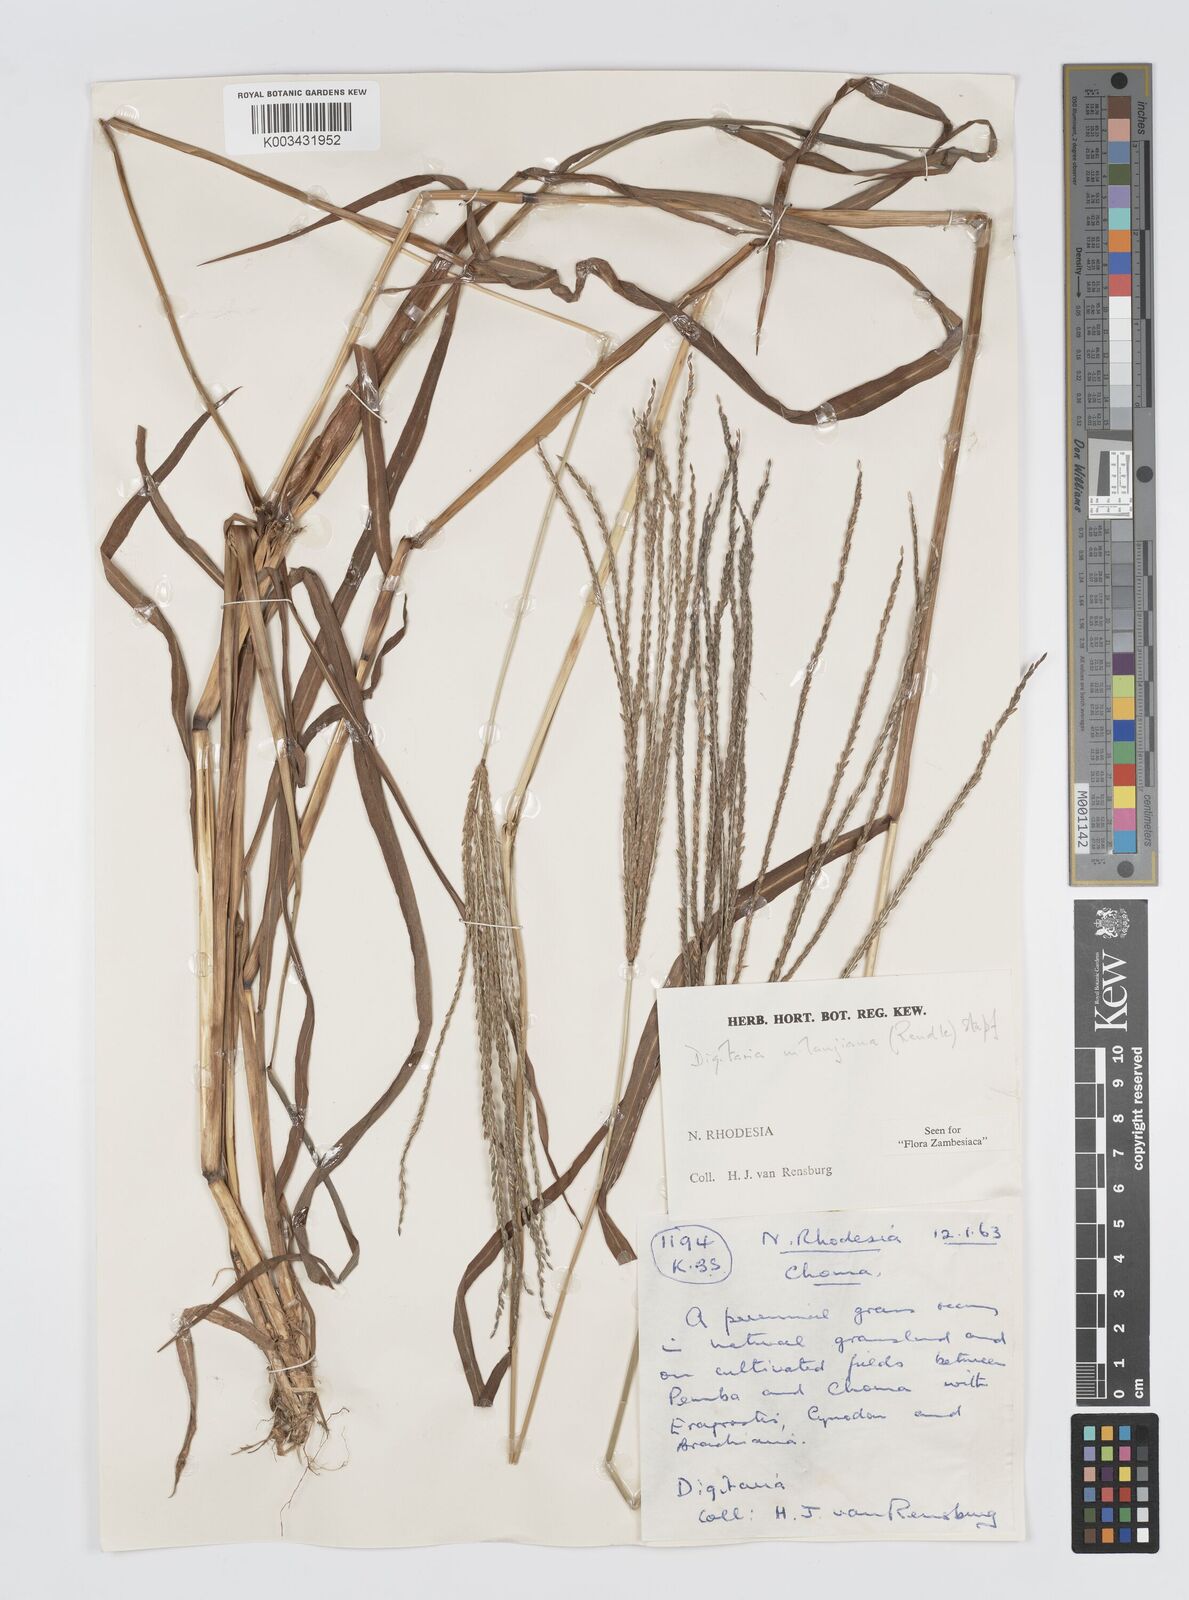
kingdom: Plantae
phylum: Tracheophyta
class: Liliopsida
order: Poales
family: Poaceae
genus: Digitaria
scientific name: Digitaria milanjiana
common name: Madagascar crabgrass
